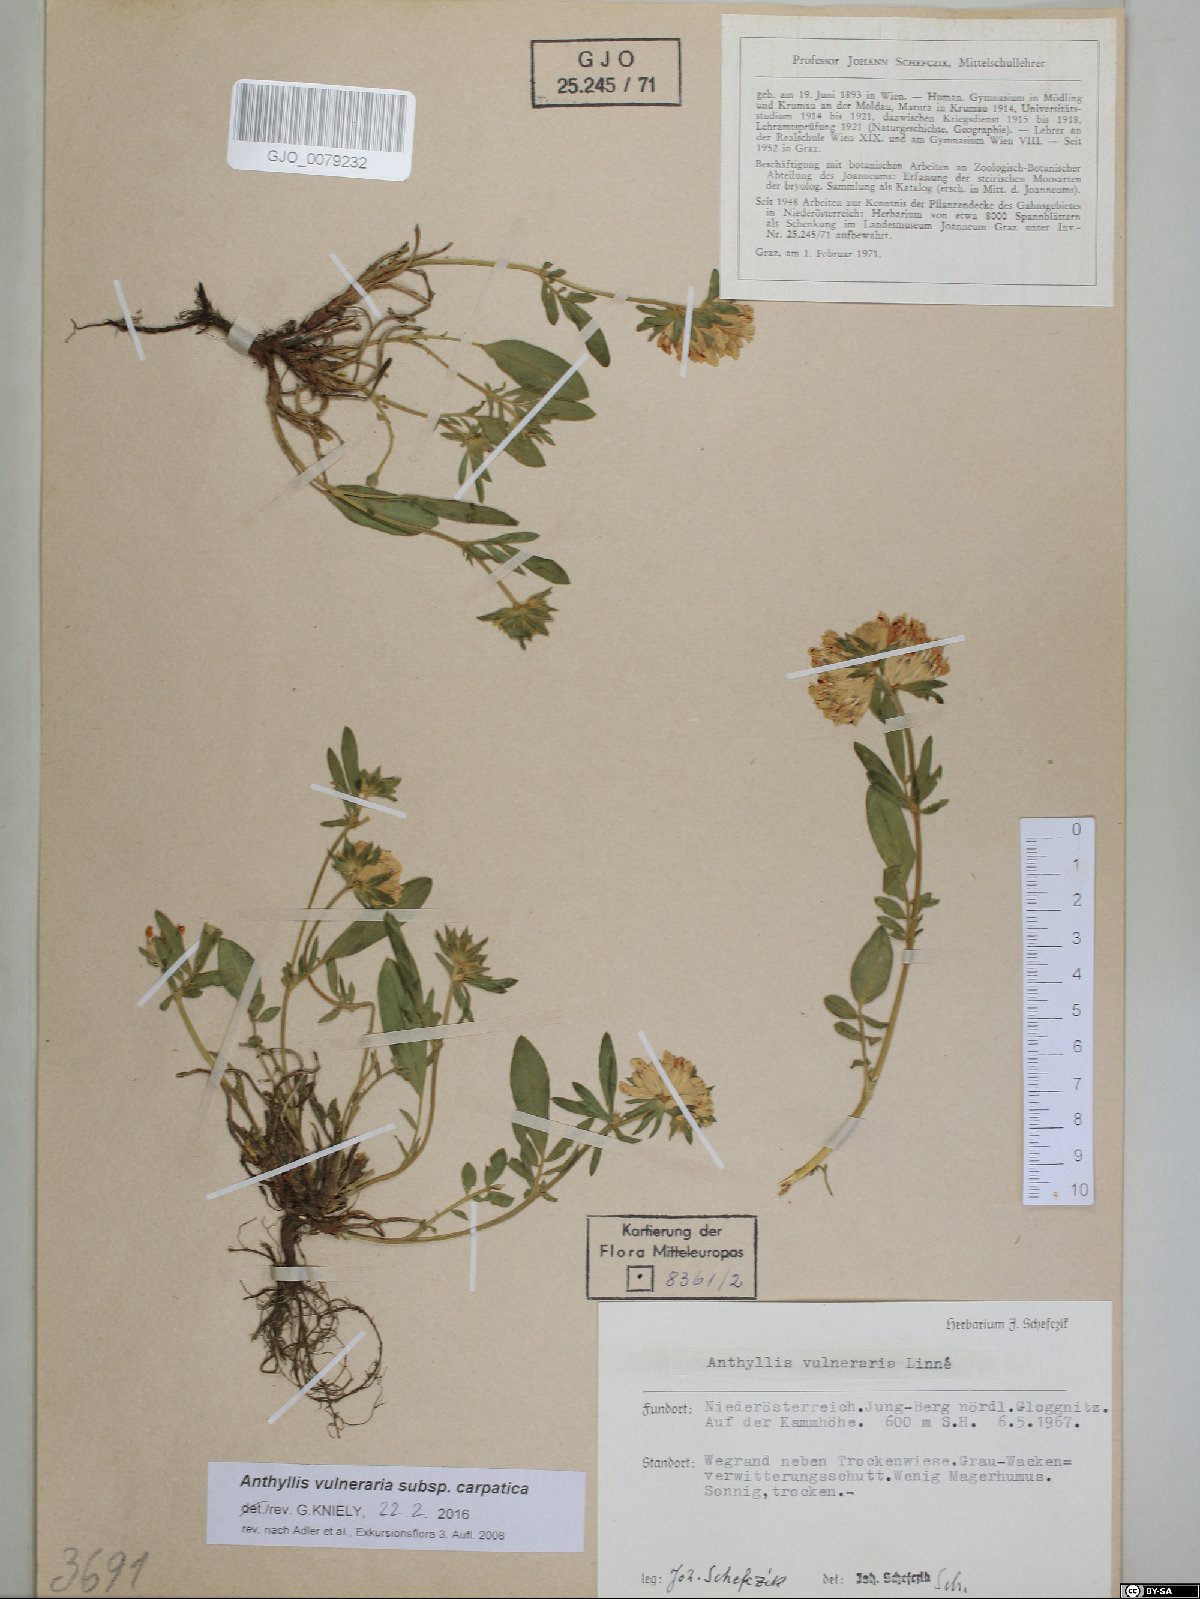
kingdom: Plantae
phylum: Tracheophyta
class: Magnoliopsida
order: Fabales
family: Fabaceae
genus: Anthyllis
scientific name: Anthyllis vulneraria
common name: Kidney vetch
